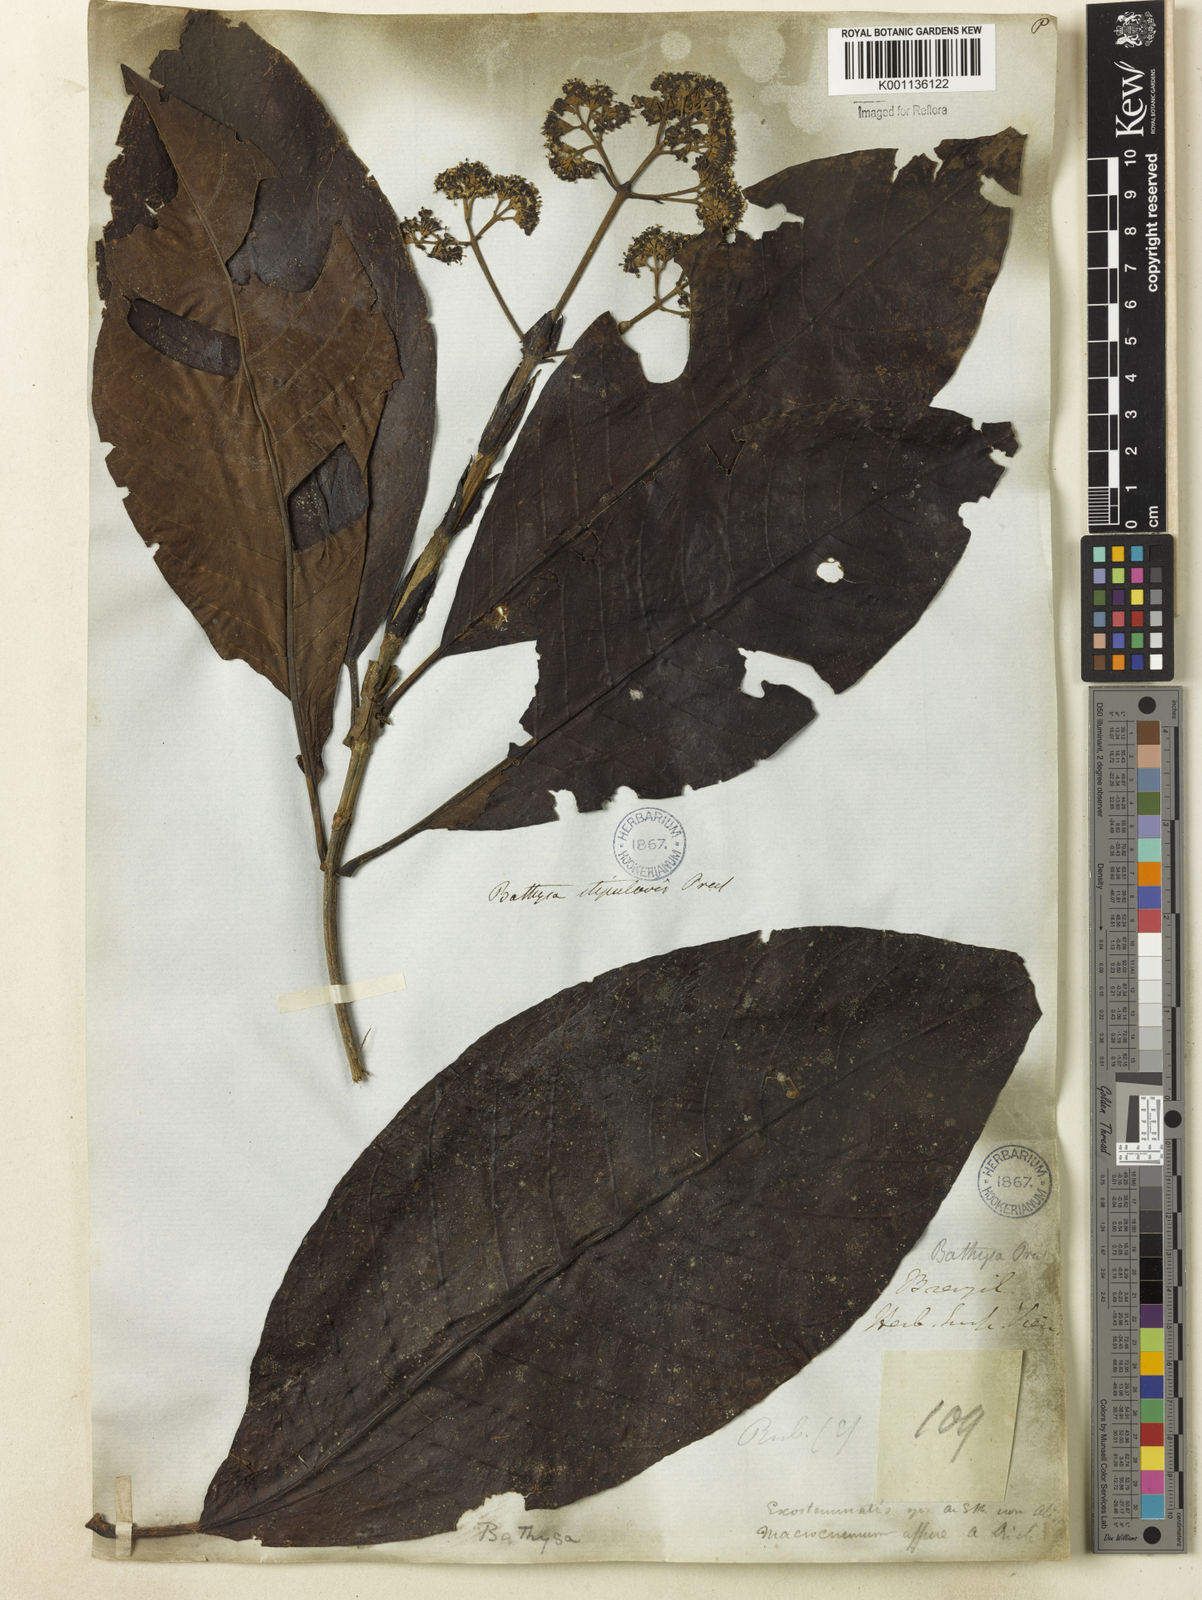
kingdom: Plantae
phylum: Tracheophyta
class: Magnoliopsida
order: Gentianales
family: Rubiaceae
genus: Bathysa
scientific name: Bathysa stipulata
